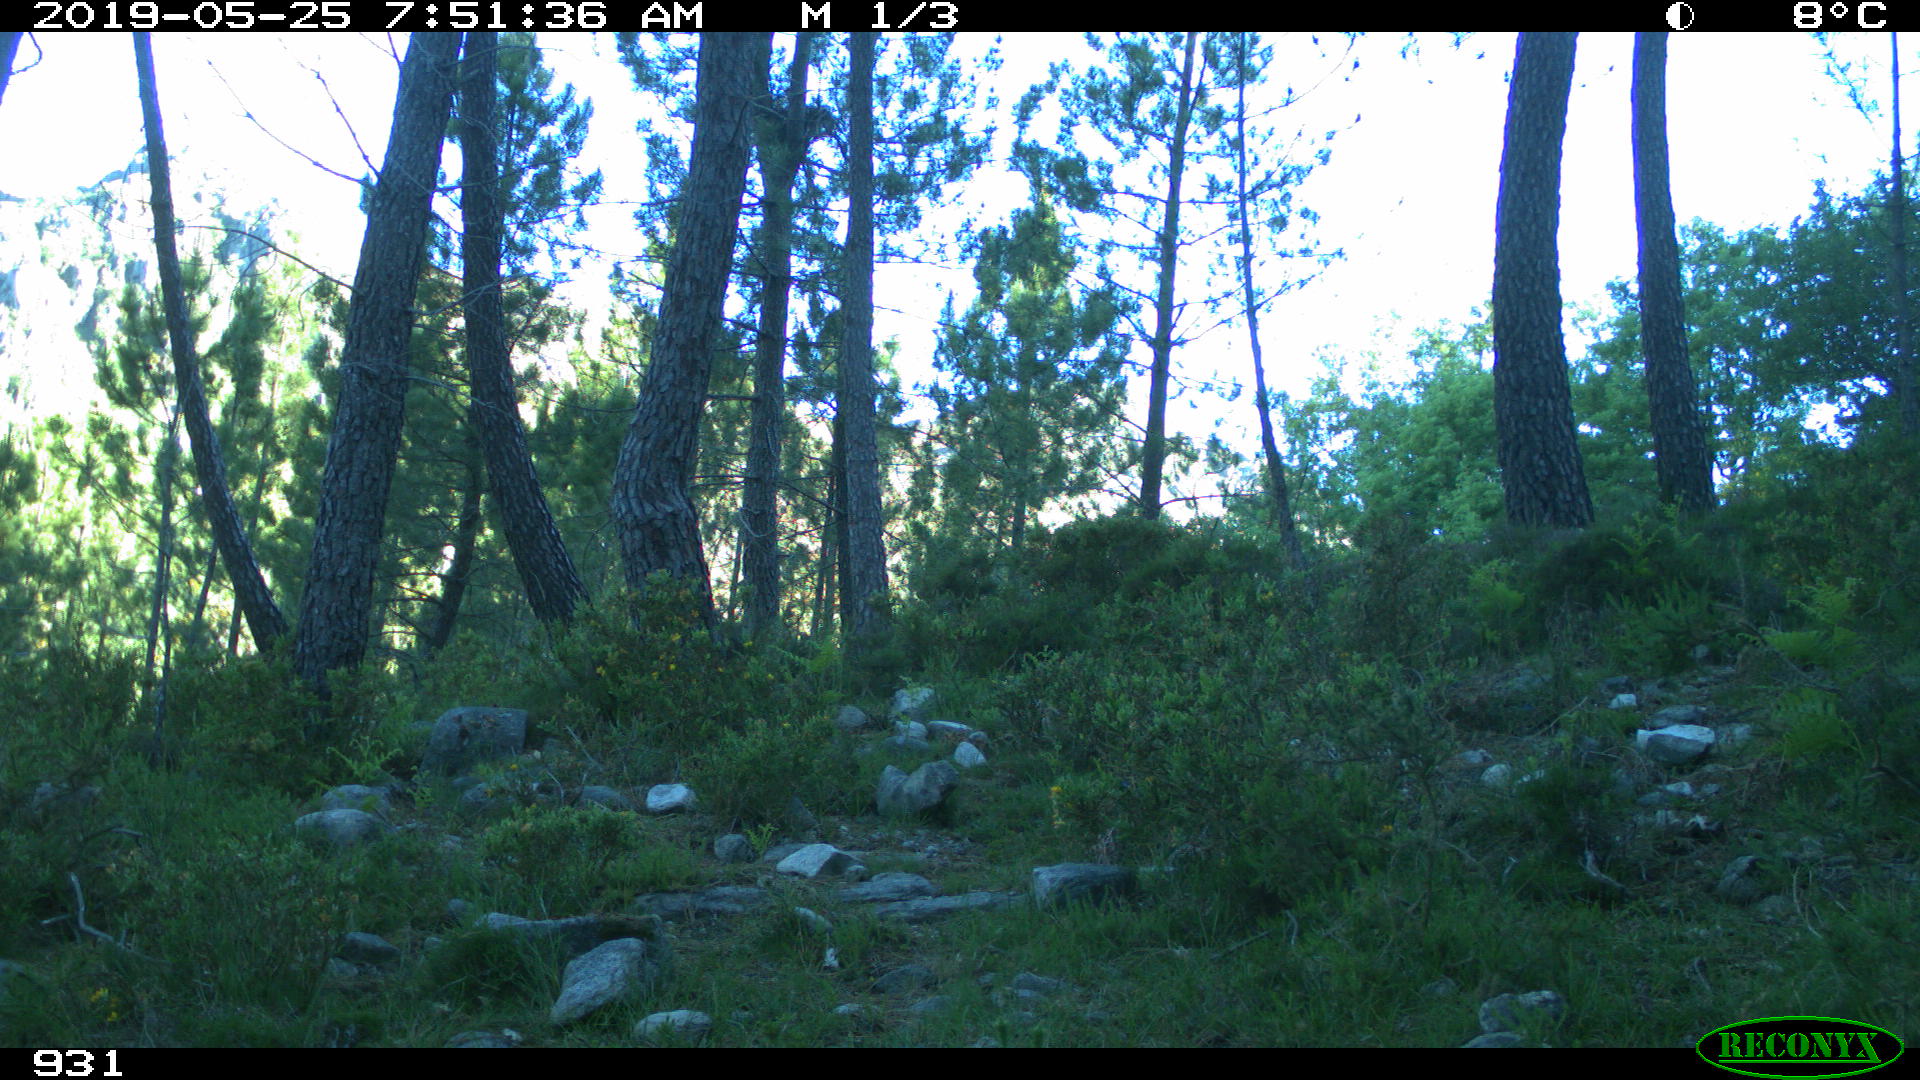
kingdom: Animalia
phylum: Chordata
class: Mammalia
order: Artiodactyla
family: Bovidae
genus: Bos
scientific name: Bos taurus
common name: Domesticated cattle
